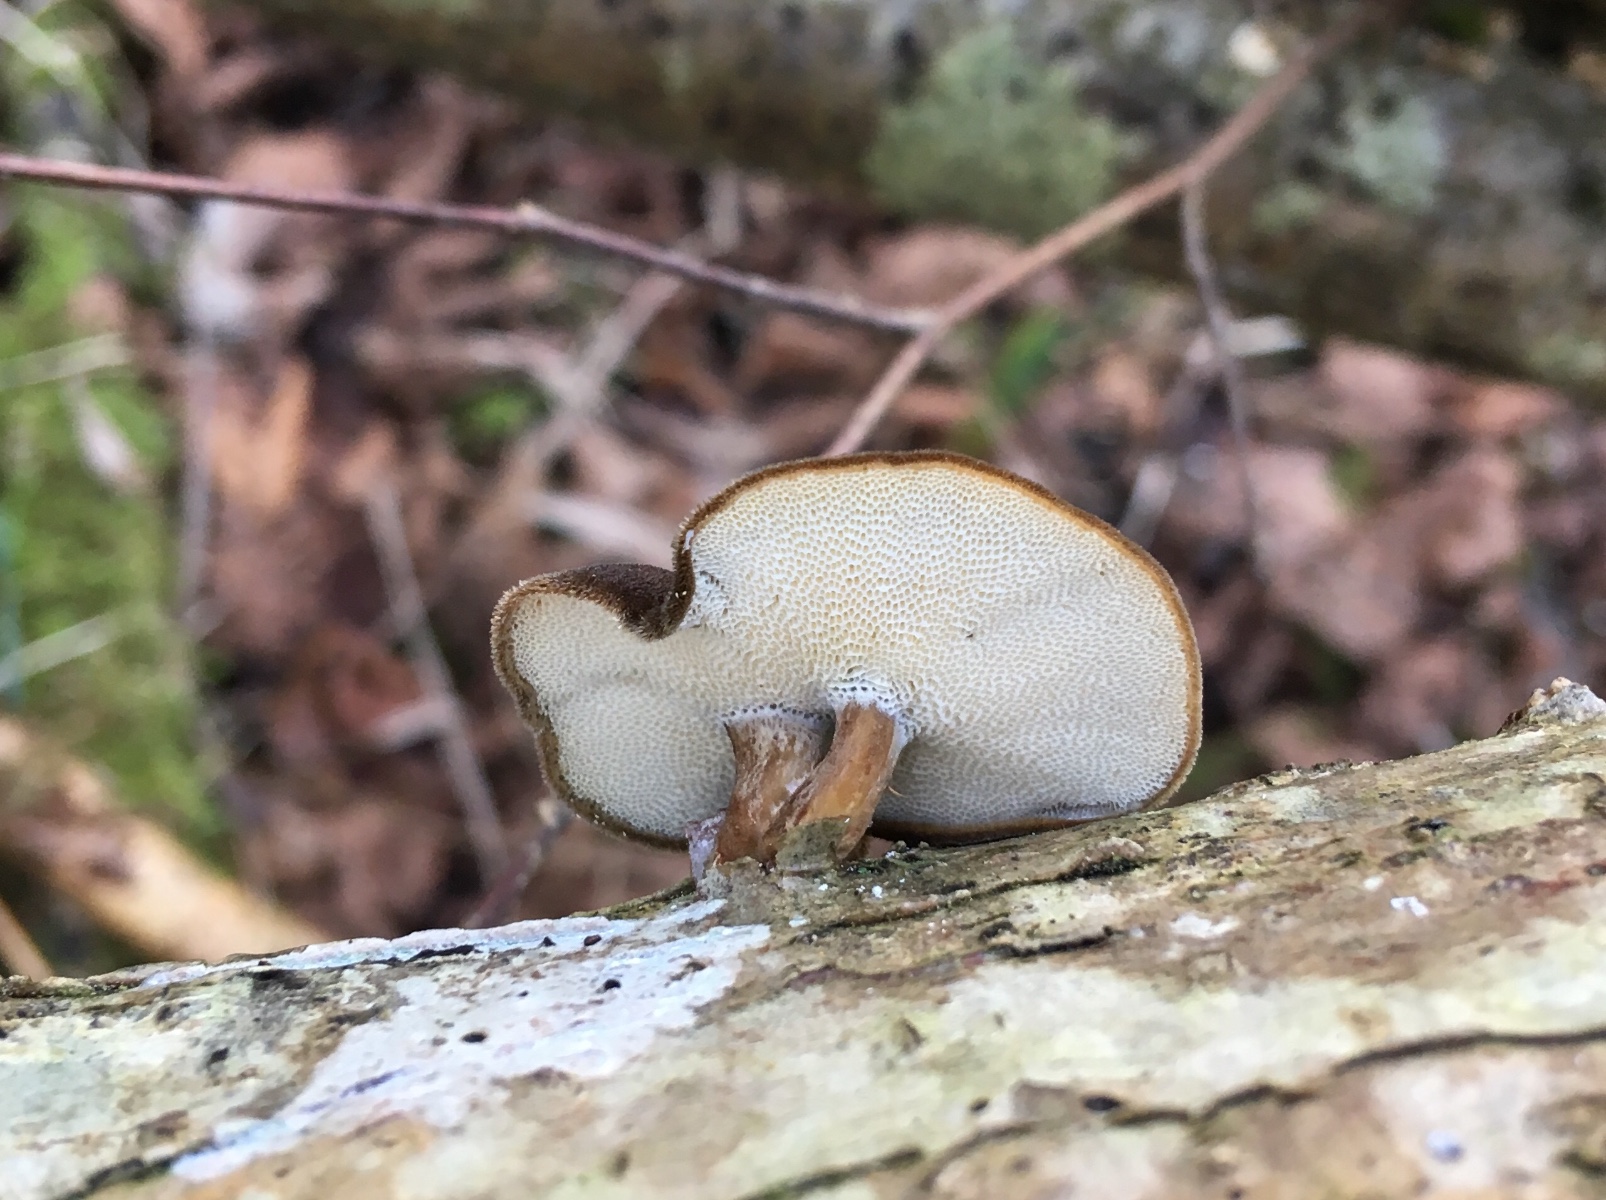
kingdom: Fungi
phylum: Basidiomycota
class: Agaricomycetes
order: Polyporales
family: Polyporaceae
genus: Lentinus
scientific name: Lentinus brumalis
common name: vinter-stilkporesvamp
